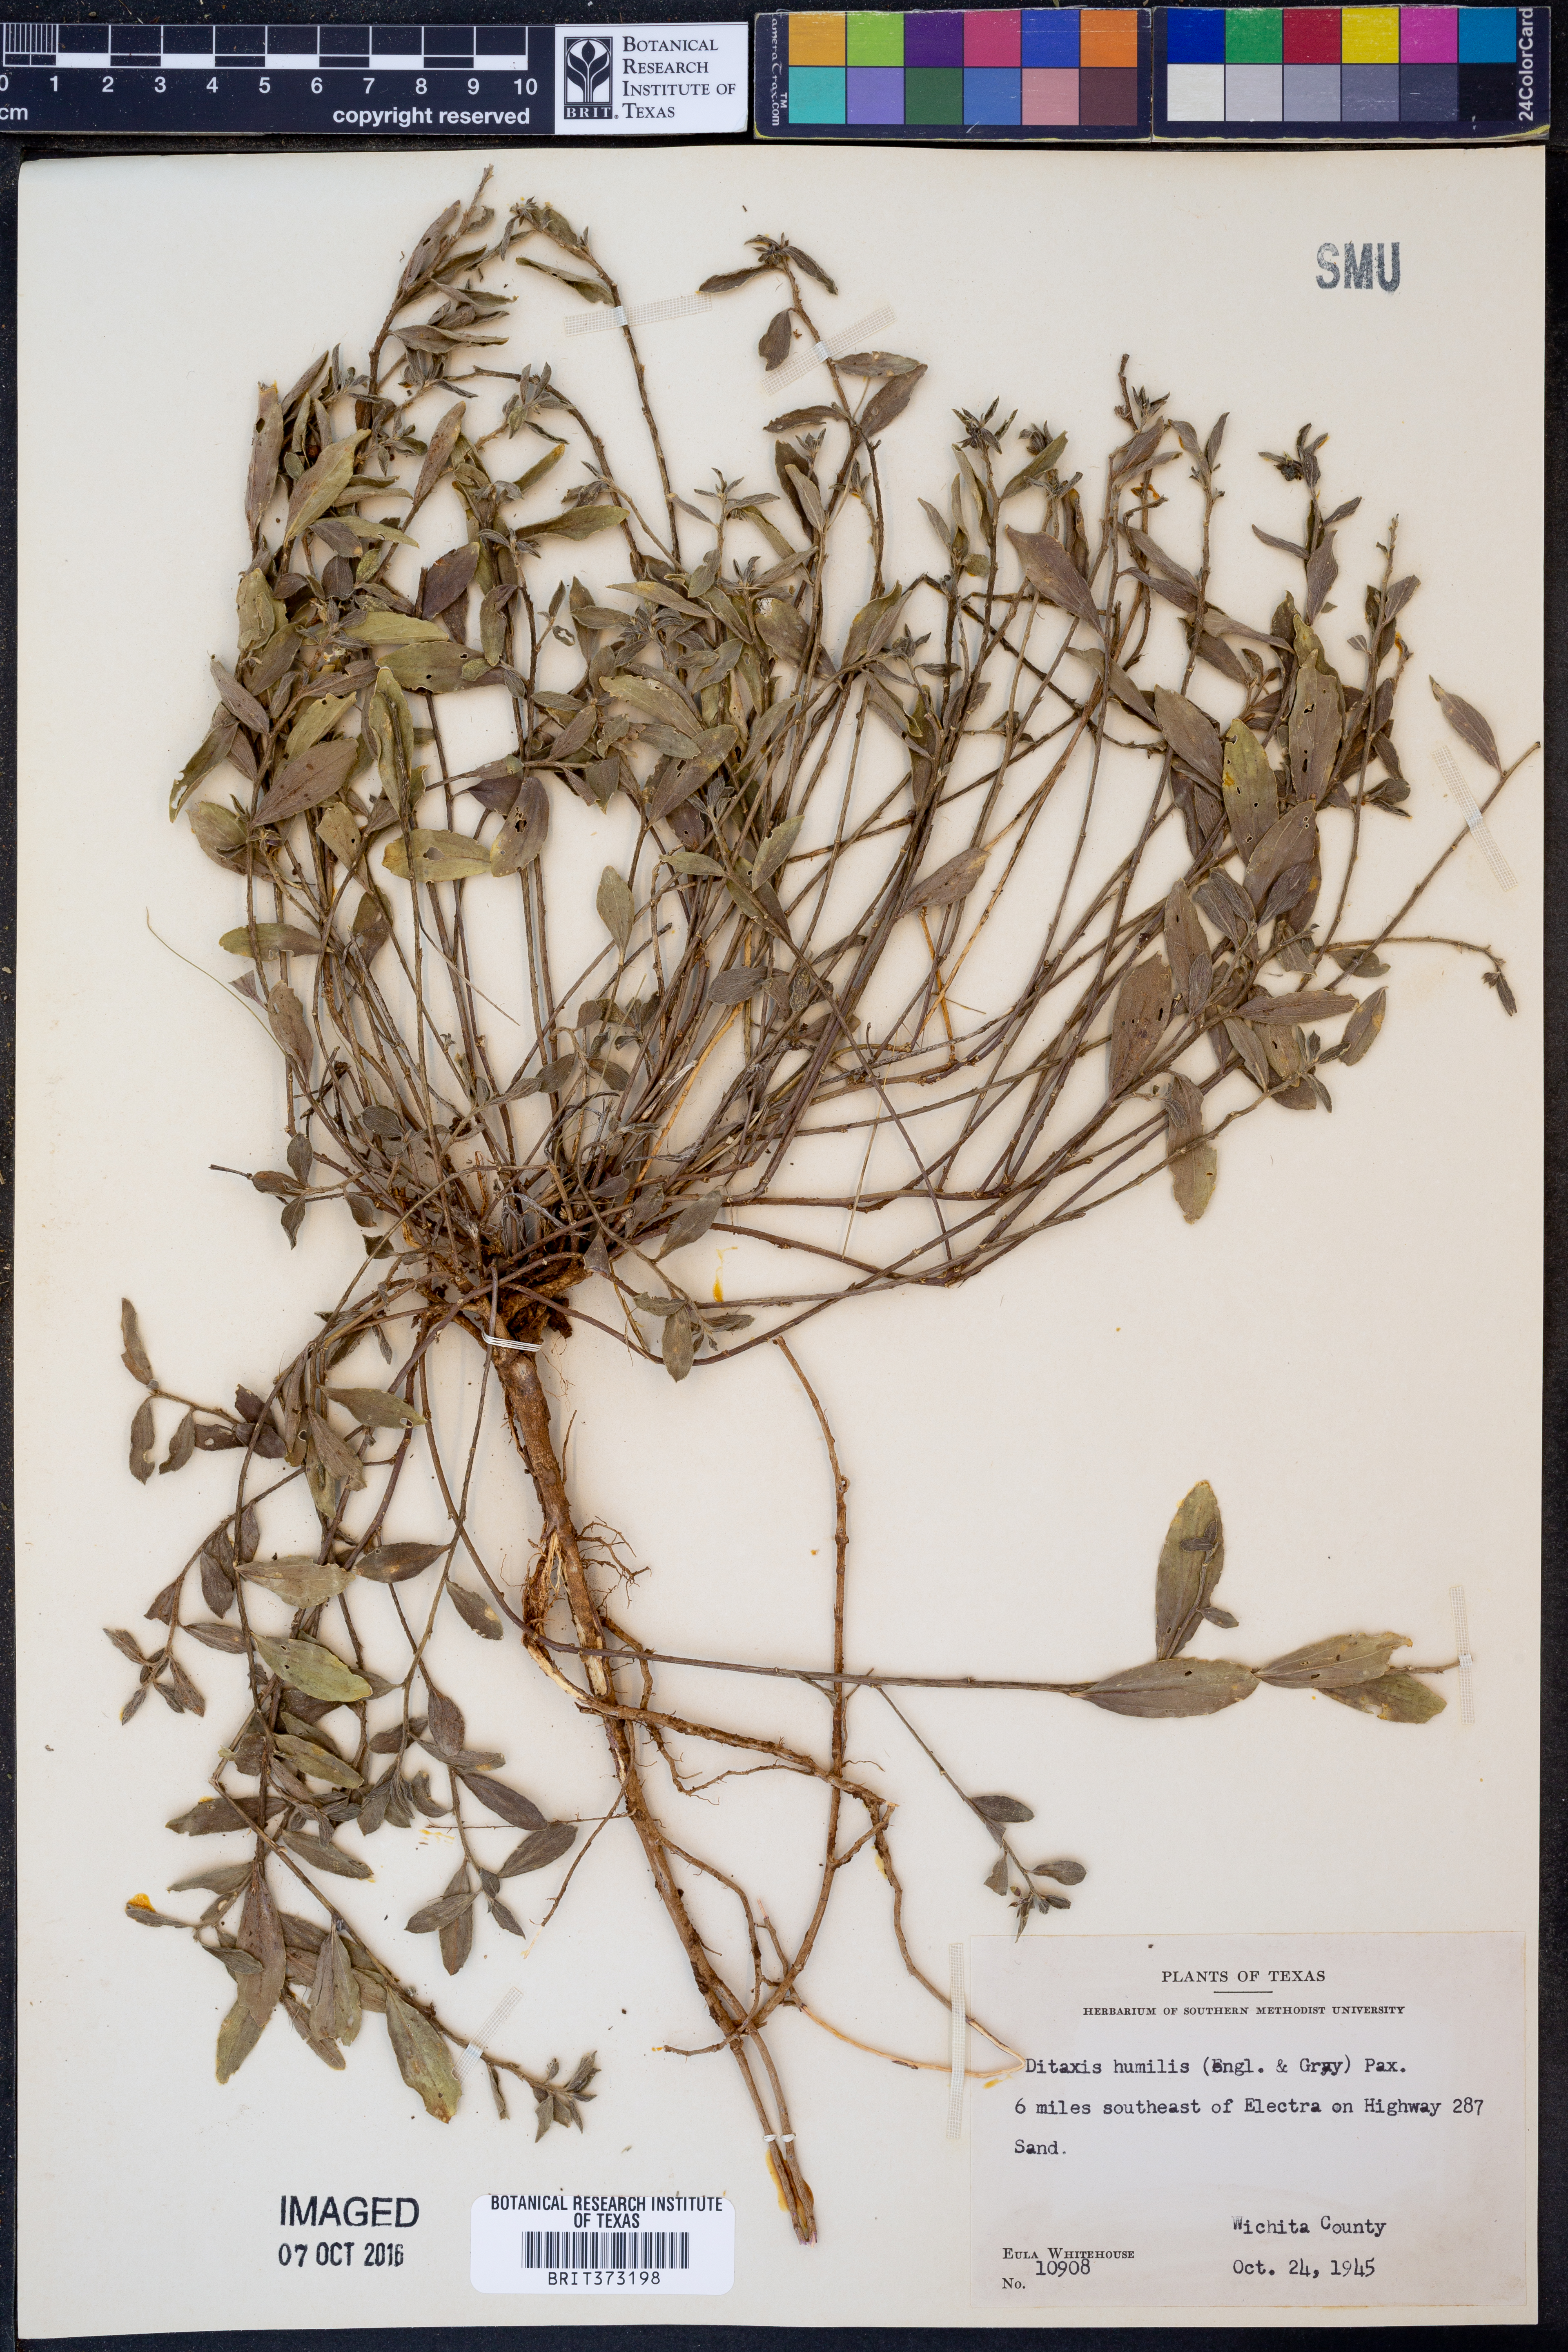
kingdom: Plantae
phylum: Tracheophyta
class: Magnoliopsida
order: Malpighiales
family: Euphorbiaceae
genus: Ditaxis
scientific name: Ditaxis humilis
